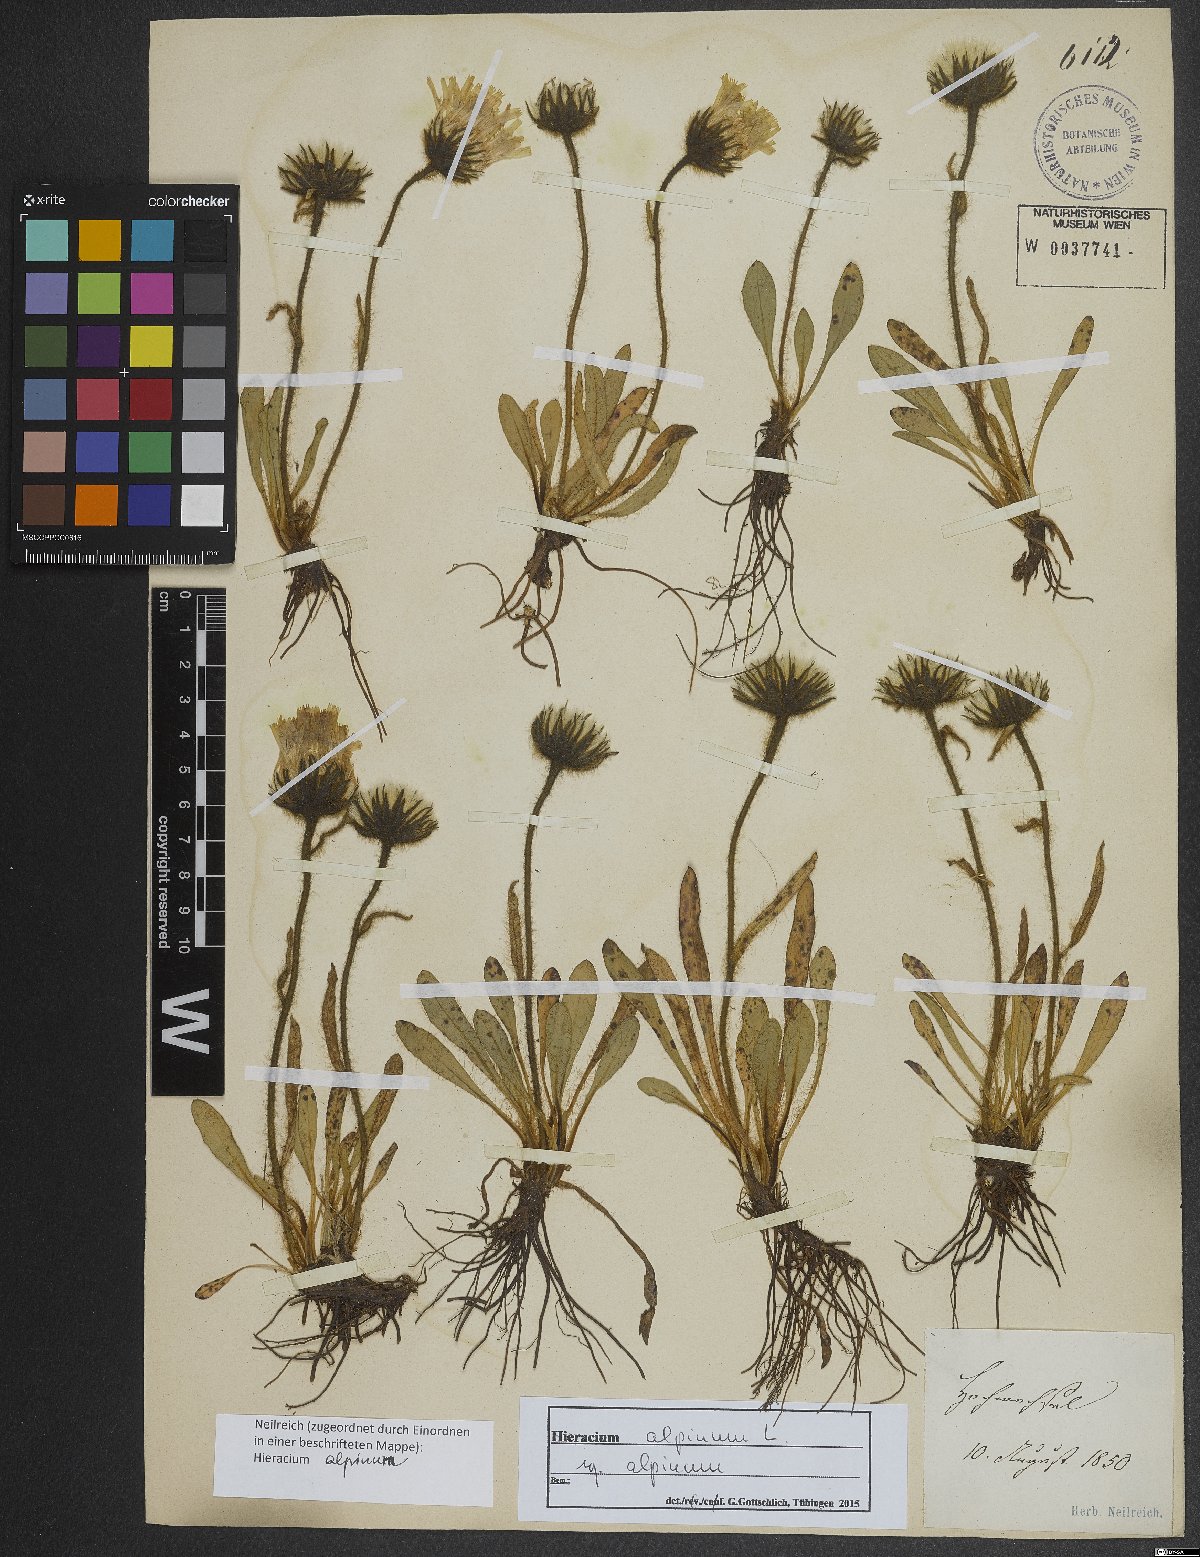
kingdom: Plantae
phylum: Tracheophyta
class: Magnoliopsida
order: Asterales
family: Asteraceae
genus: Hieracium
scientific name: Hieracium alpinum
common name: Alpine hawkweed
